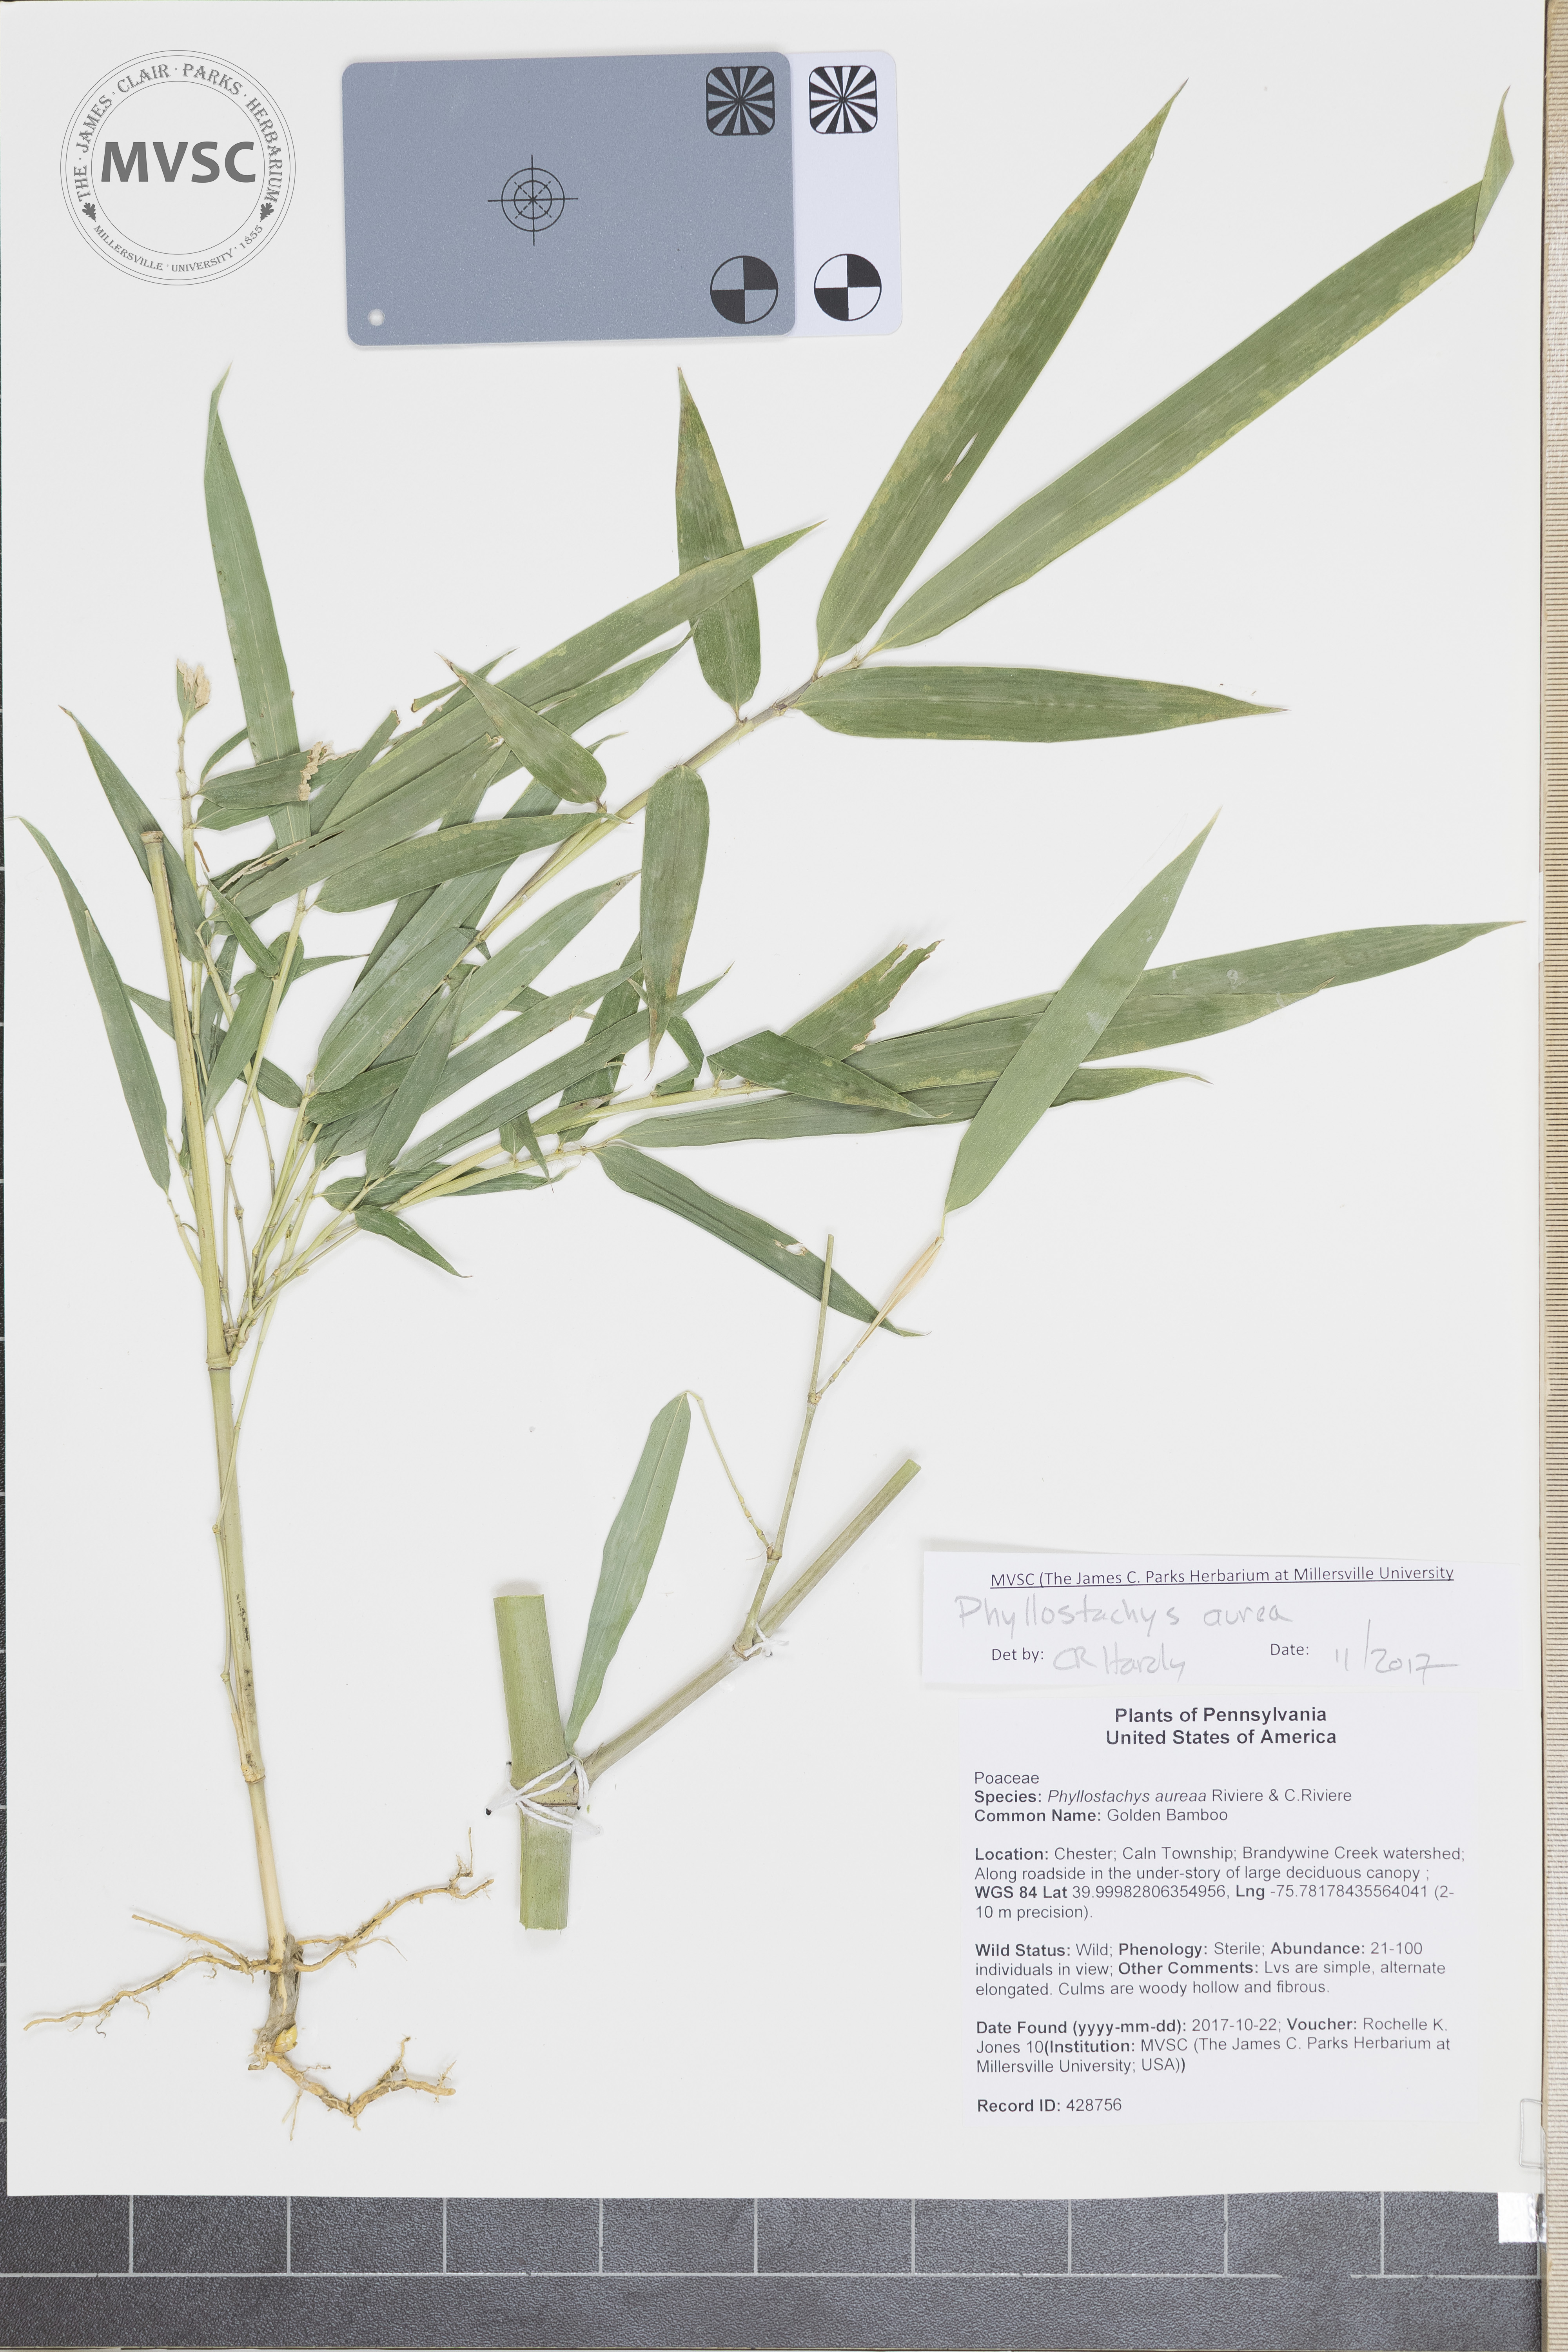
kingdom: Plantae
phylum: Tracheophyta
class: Liliopsida
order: Poales
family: Poaceae
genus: Phyllostachys
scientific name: Phyllostachys aurea
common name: Golden Bamboo
